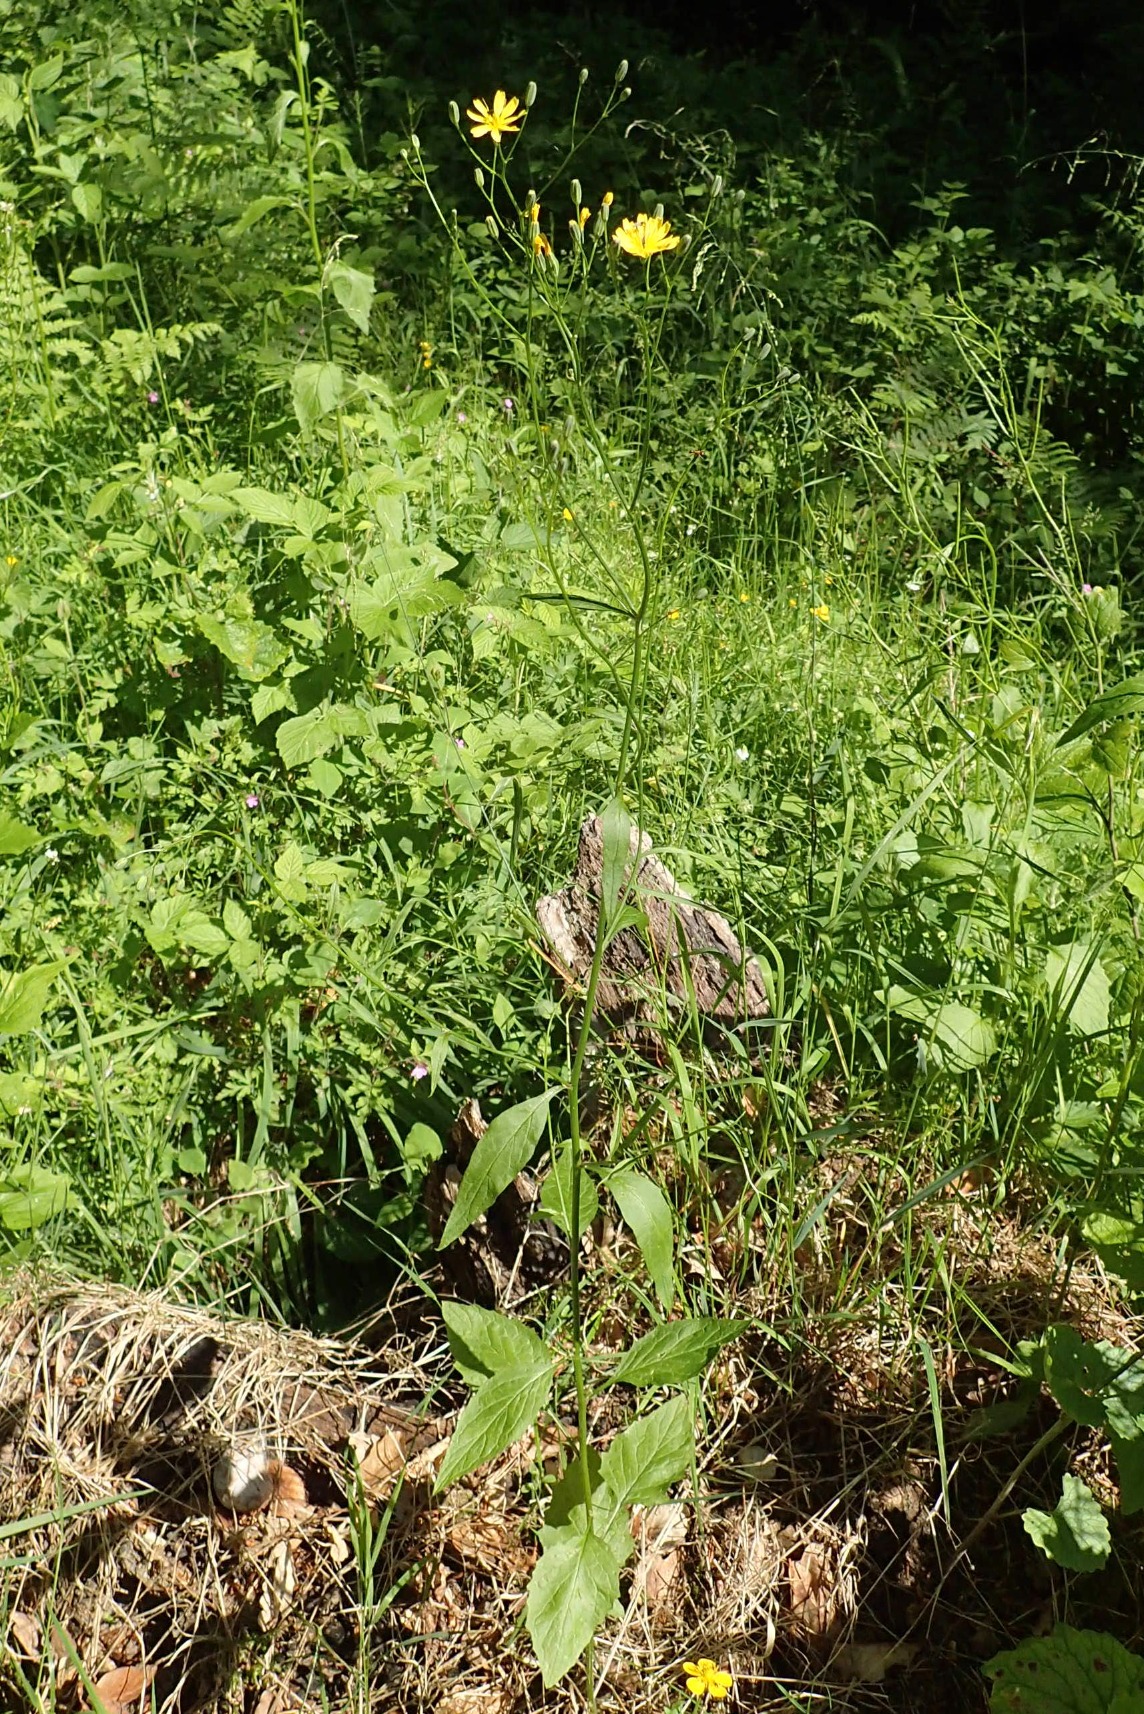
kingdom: Plantae
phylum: Tracheophyta
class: Magnoliopsida
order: Asterales
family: Asteraceae
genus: Lapsana
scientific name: Lapsana communis
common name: Haremad
